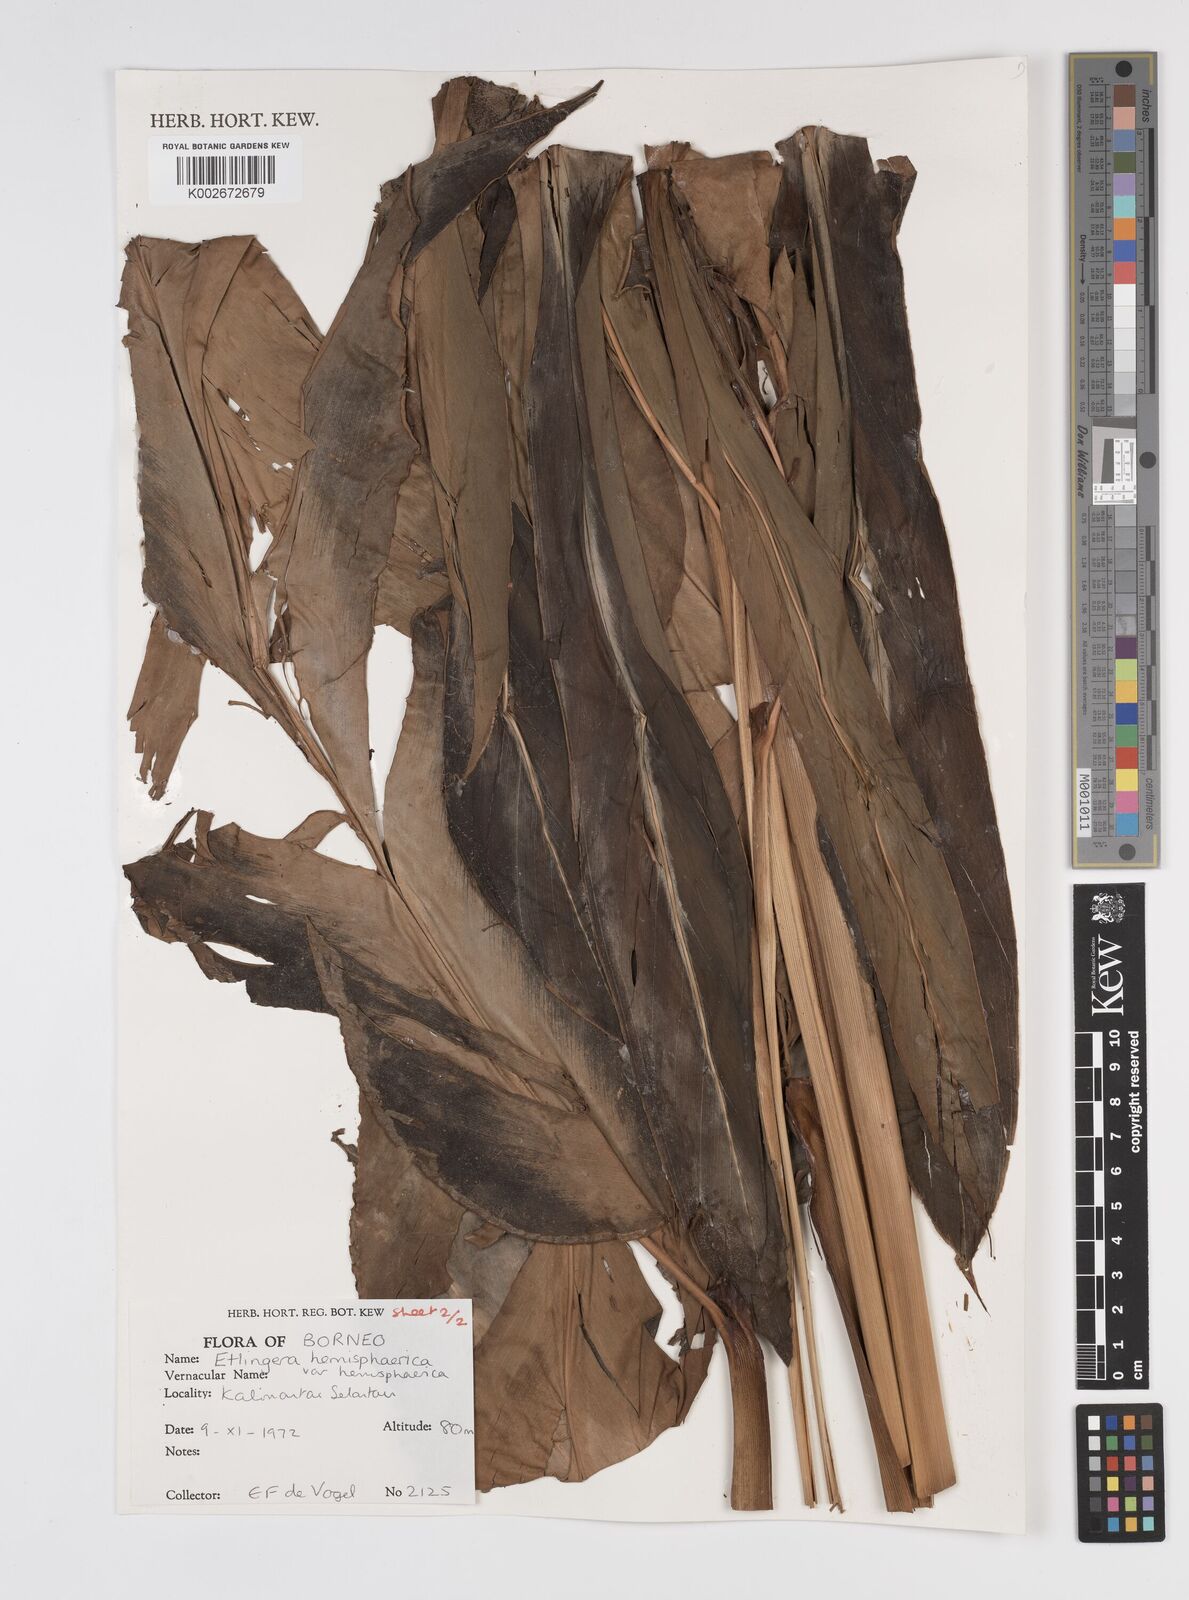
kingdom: Plantae
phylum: Tracheophyta
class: Liliopsida
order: Zingiberales
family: Zingiberaceae
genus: Etlingera
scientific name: Etlingera hemisphaerica
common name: Black tulip
